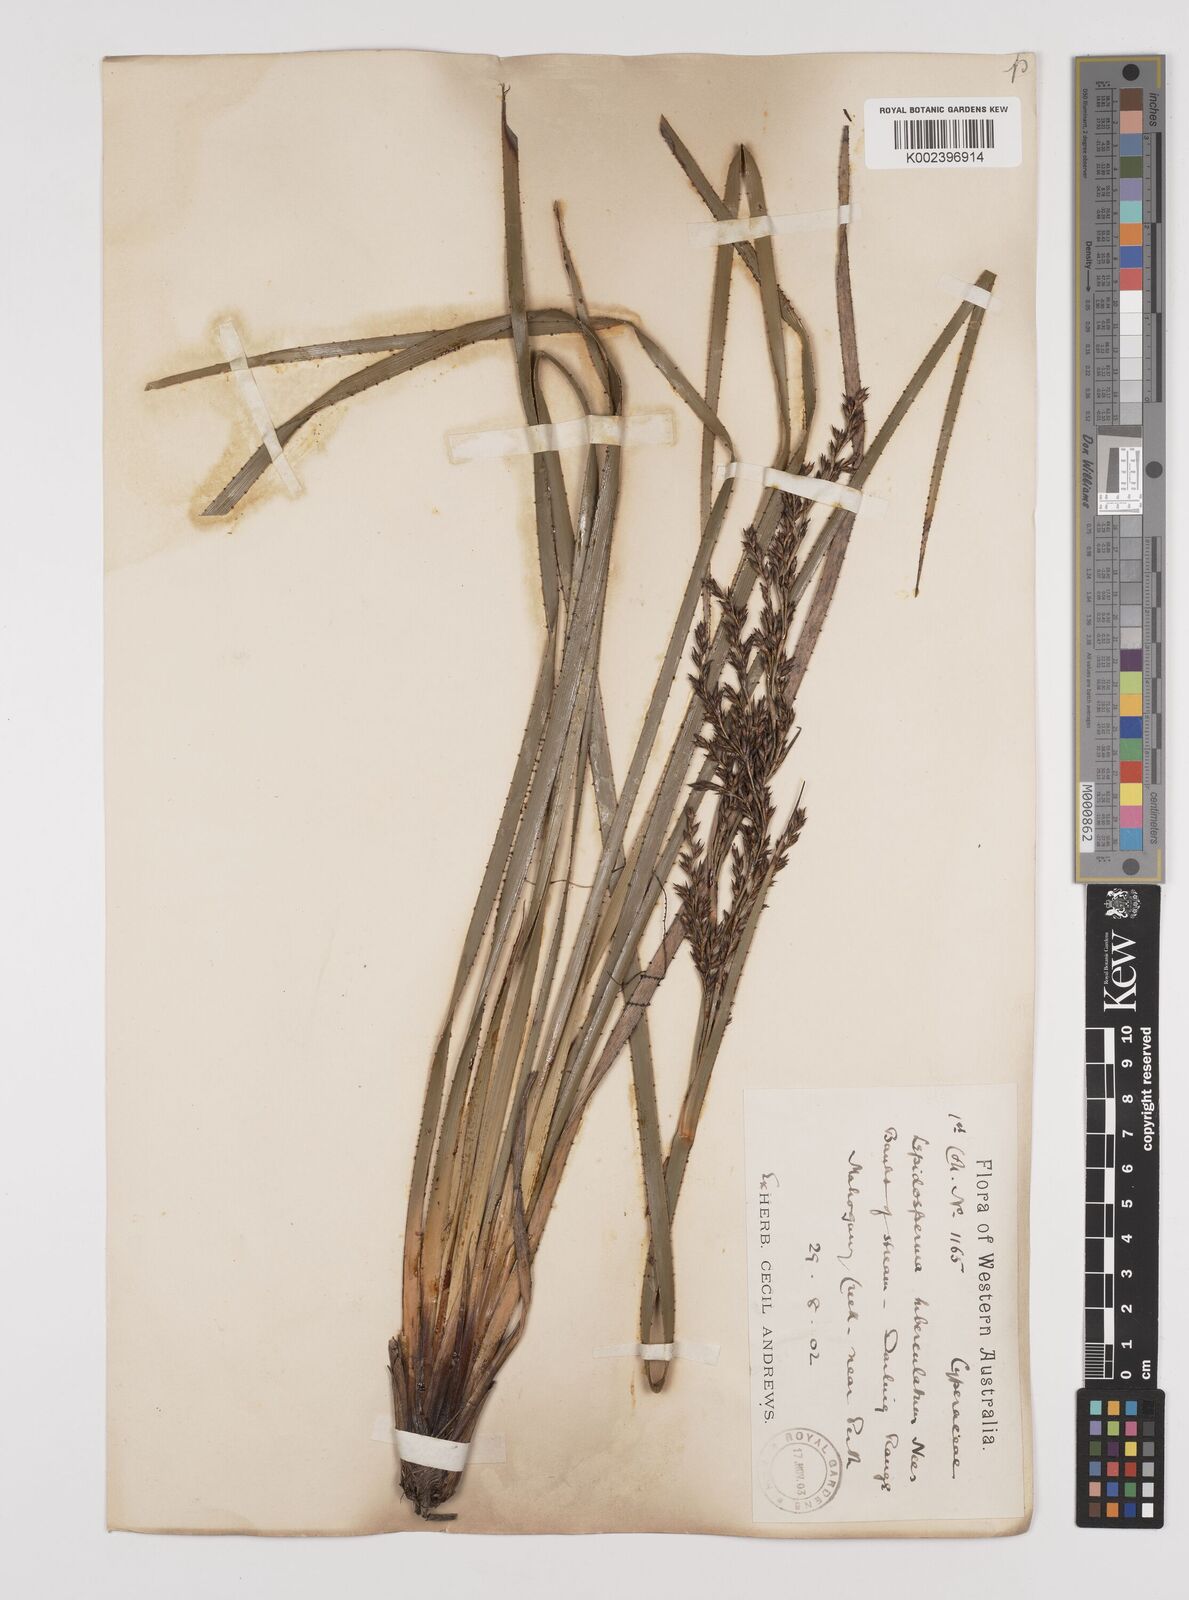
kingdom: Plantae
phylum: Tracheophyta
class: Liliopsida
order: Poales
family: Cyperaceae
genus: Lepidosperma
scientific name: Lepidosperma tuberculatum
